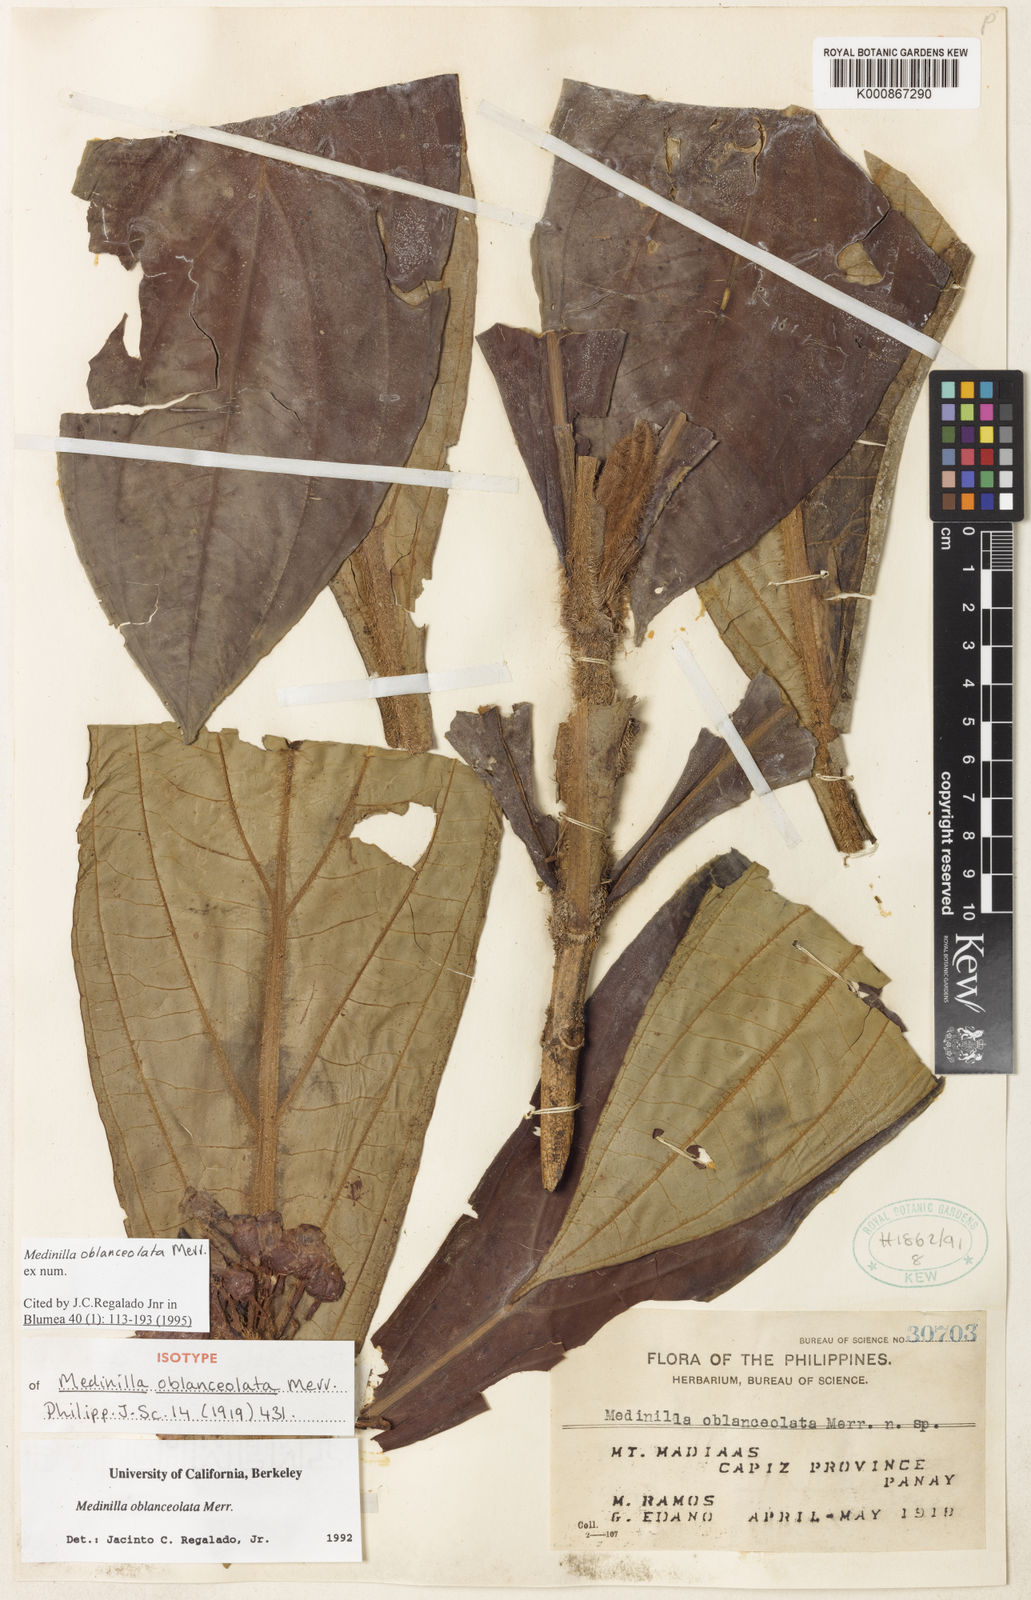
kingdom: Plantae
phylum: Tracheophyta
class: Magnoliopsida
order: Myrtales
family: Melastomataceae
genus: Medinilla
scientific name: Medinilla oblanceolata
